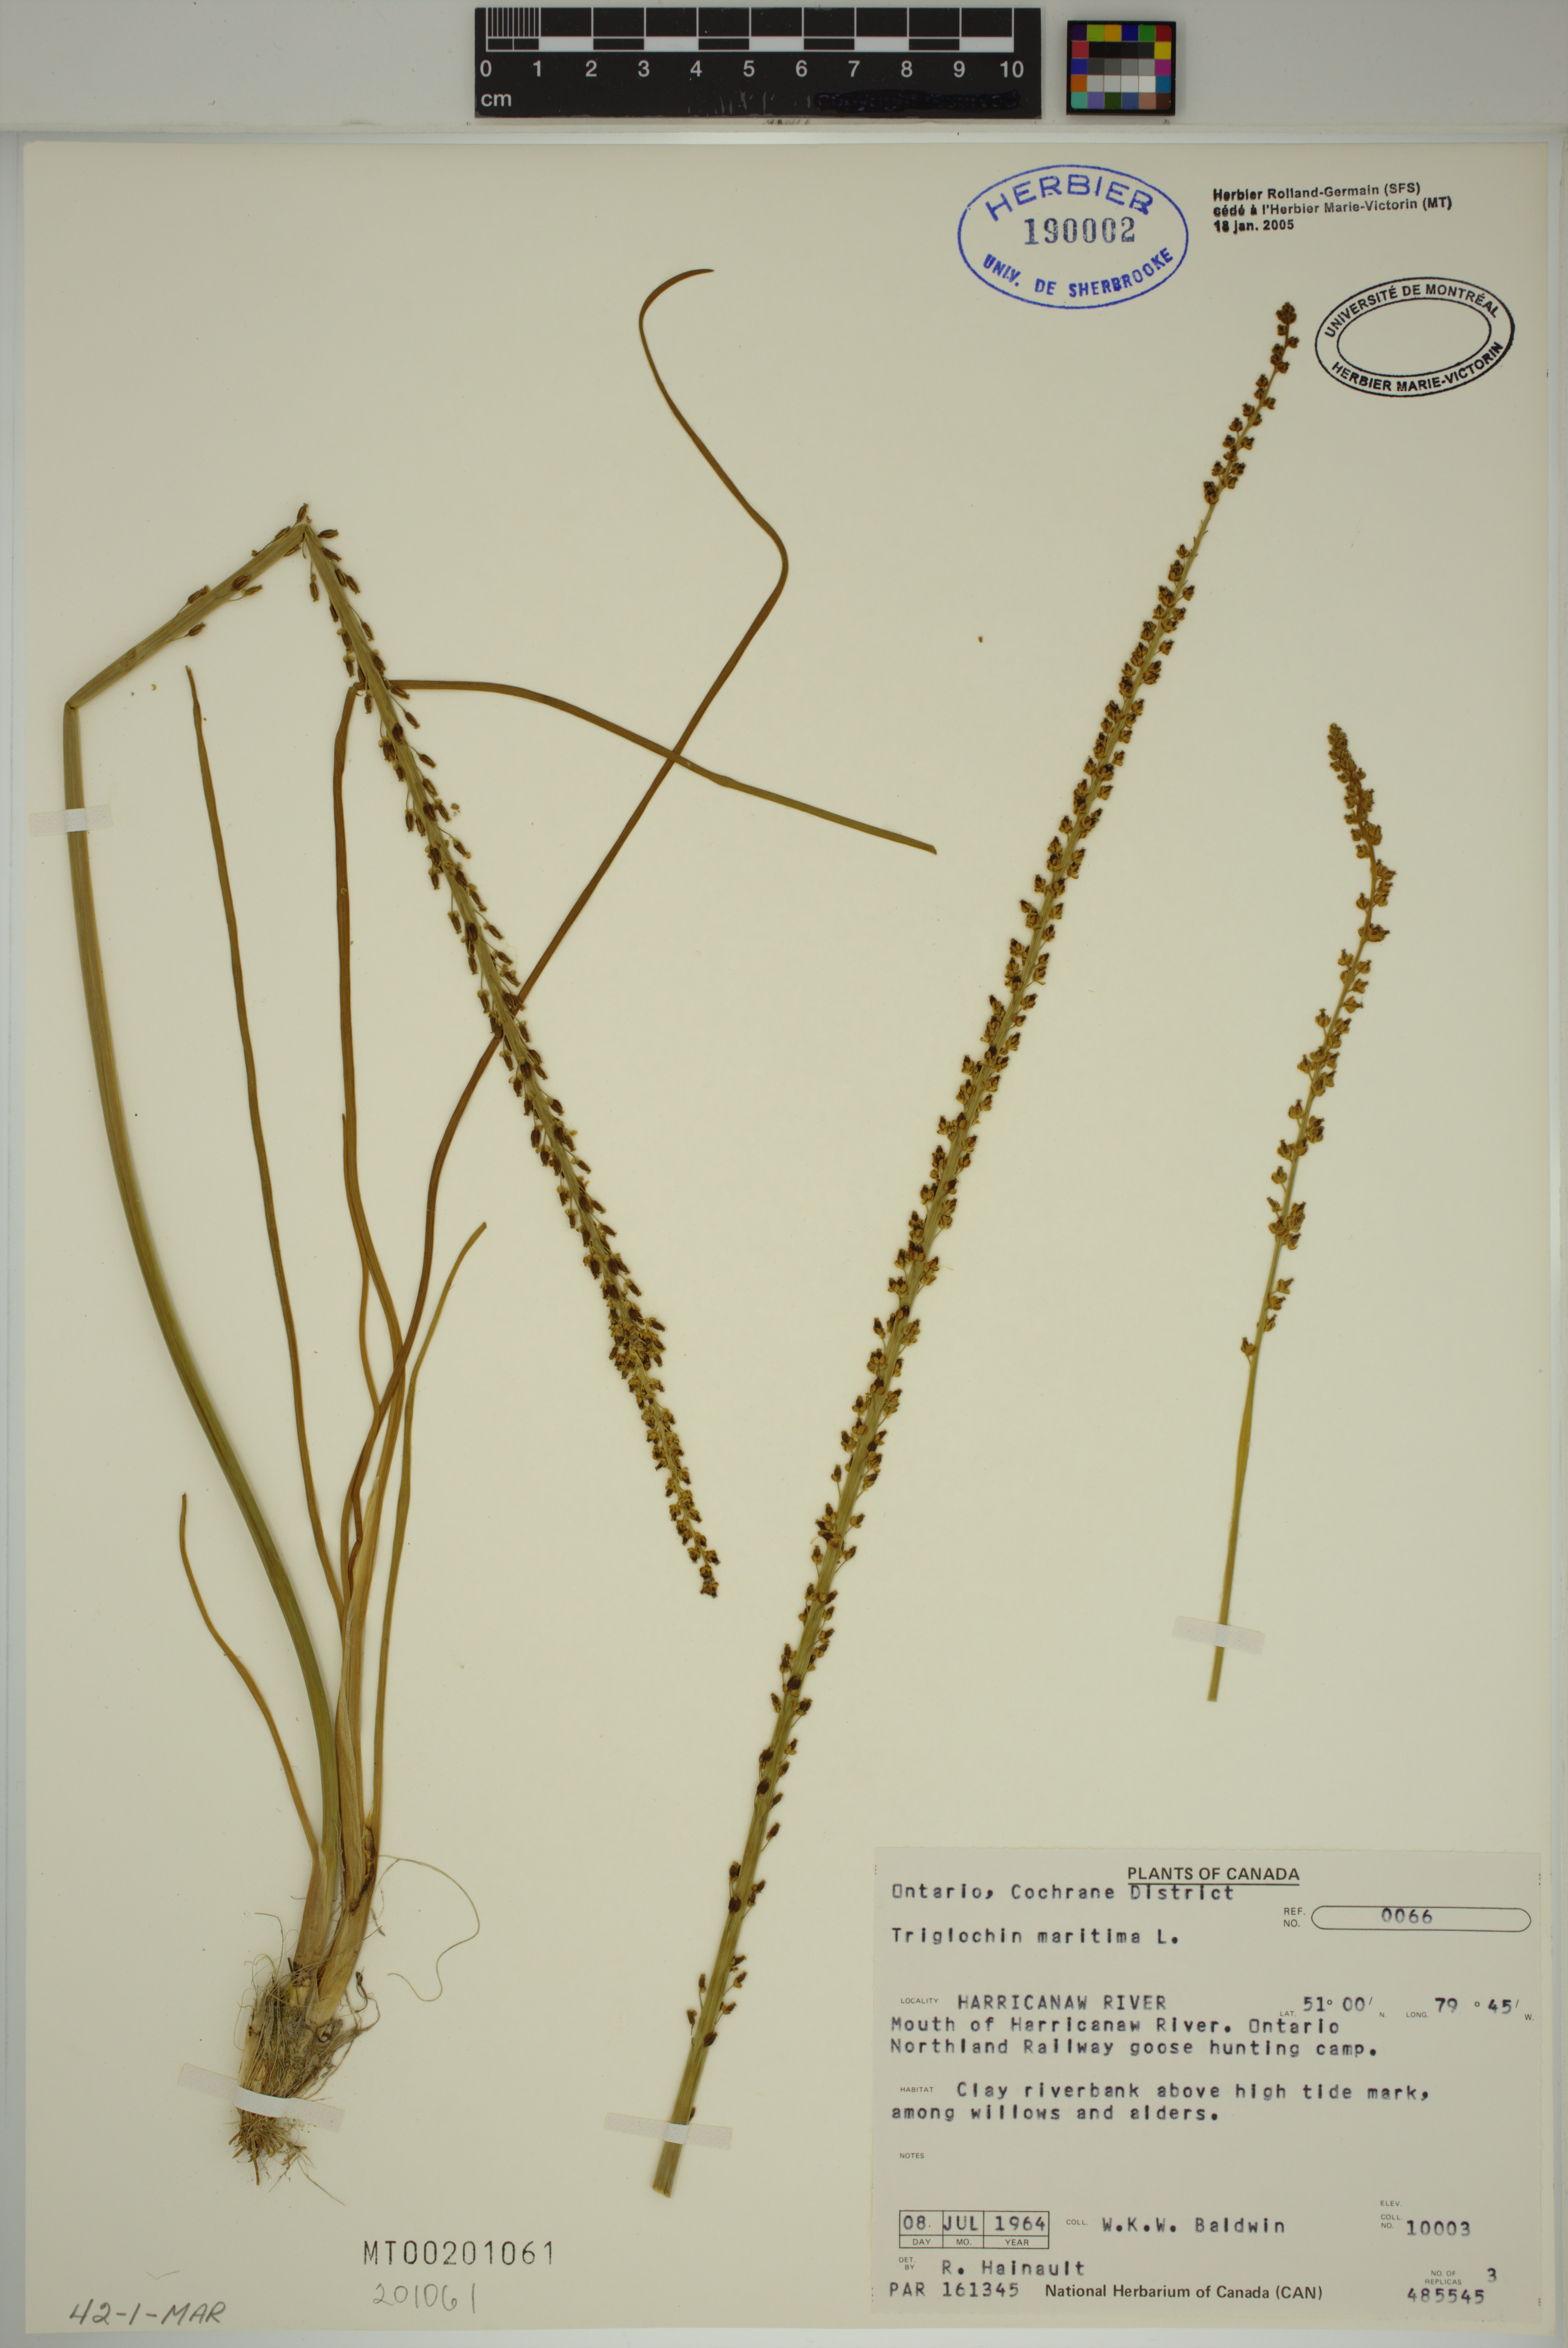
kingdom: Plantae
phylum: Tracheophyta
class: Liliopsida
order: Alismatales
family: Juncaginaceae
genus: Triglochin
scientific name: Triglochin maritima
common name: Sea arrowgrass
